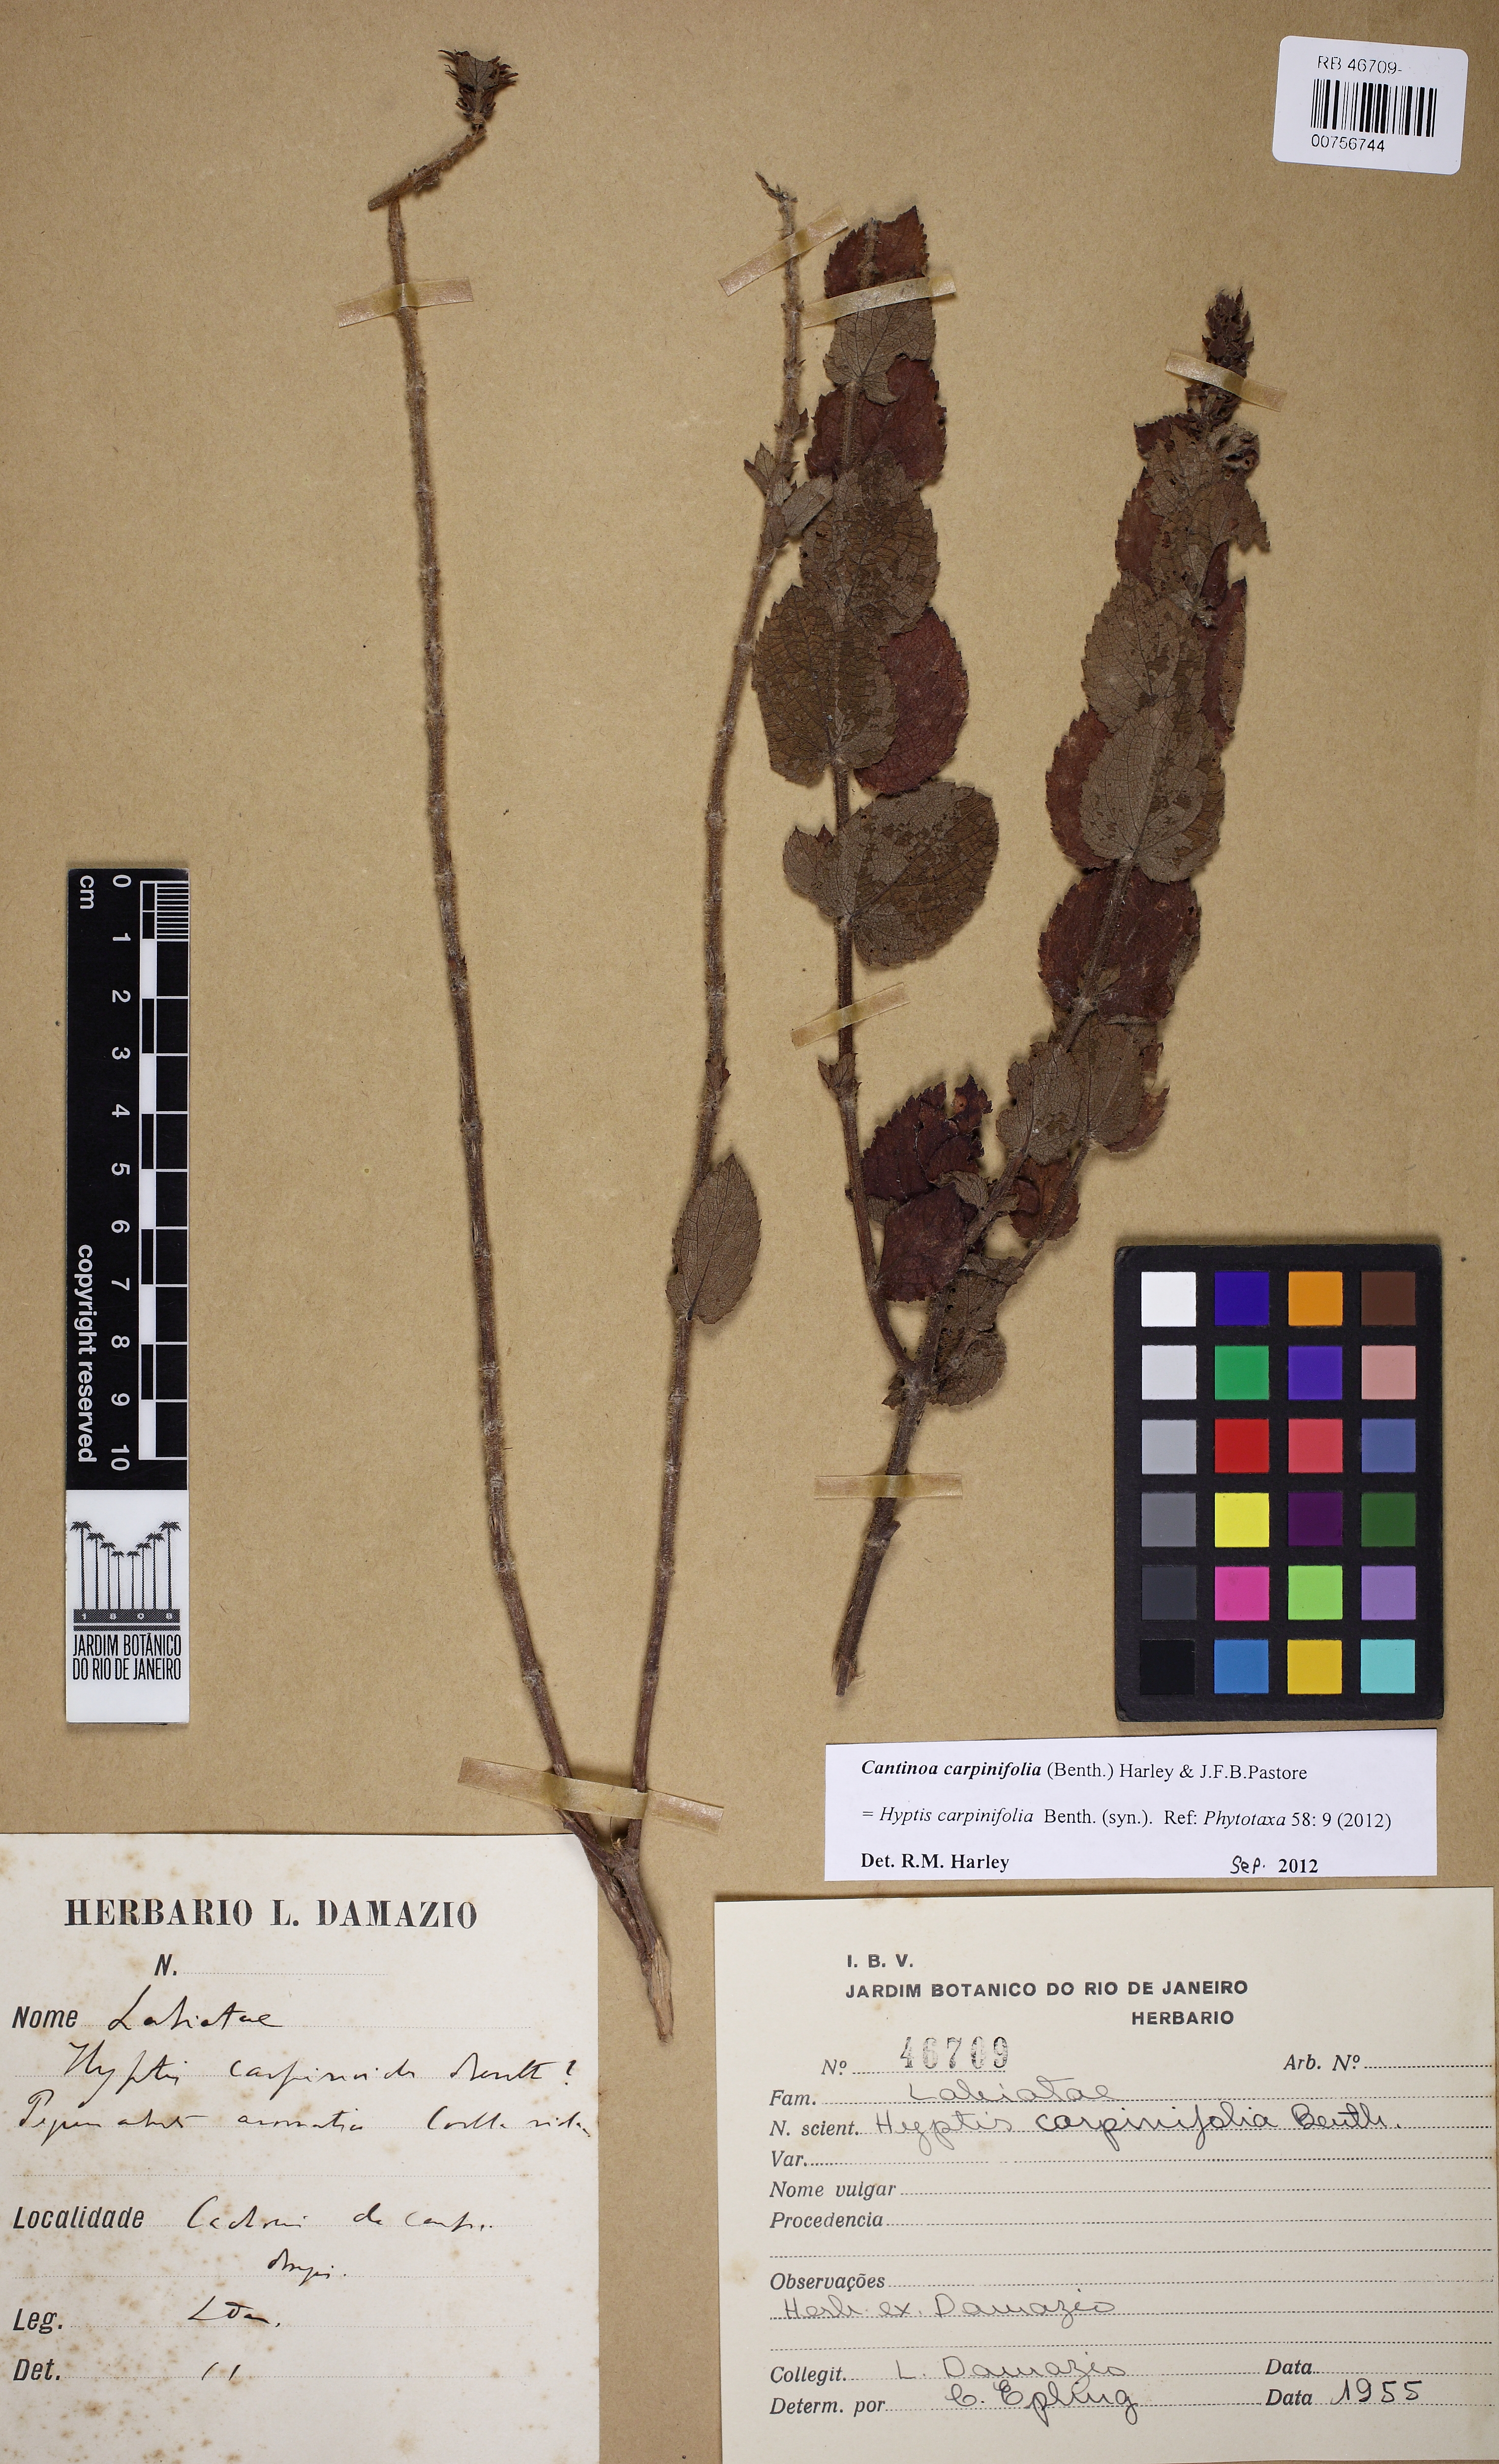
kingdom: Plantae
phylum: Tracheophyta
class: Magnoliopsida
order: Lamiales
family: Lamiaceae
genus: Cantinoa
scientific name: Cantinoa carpinifolia
